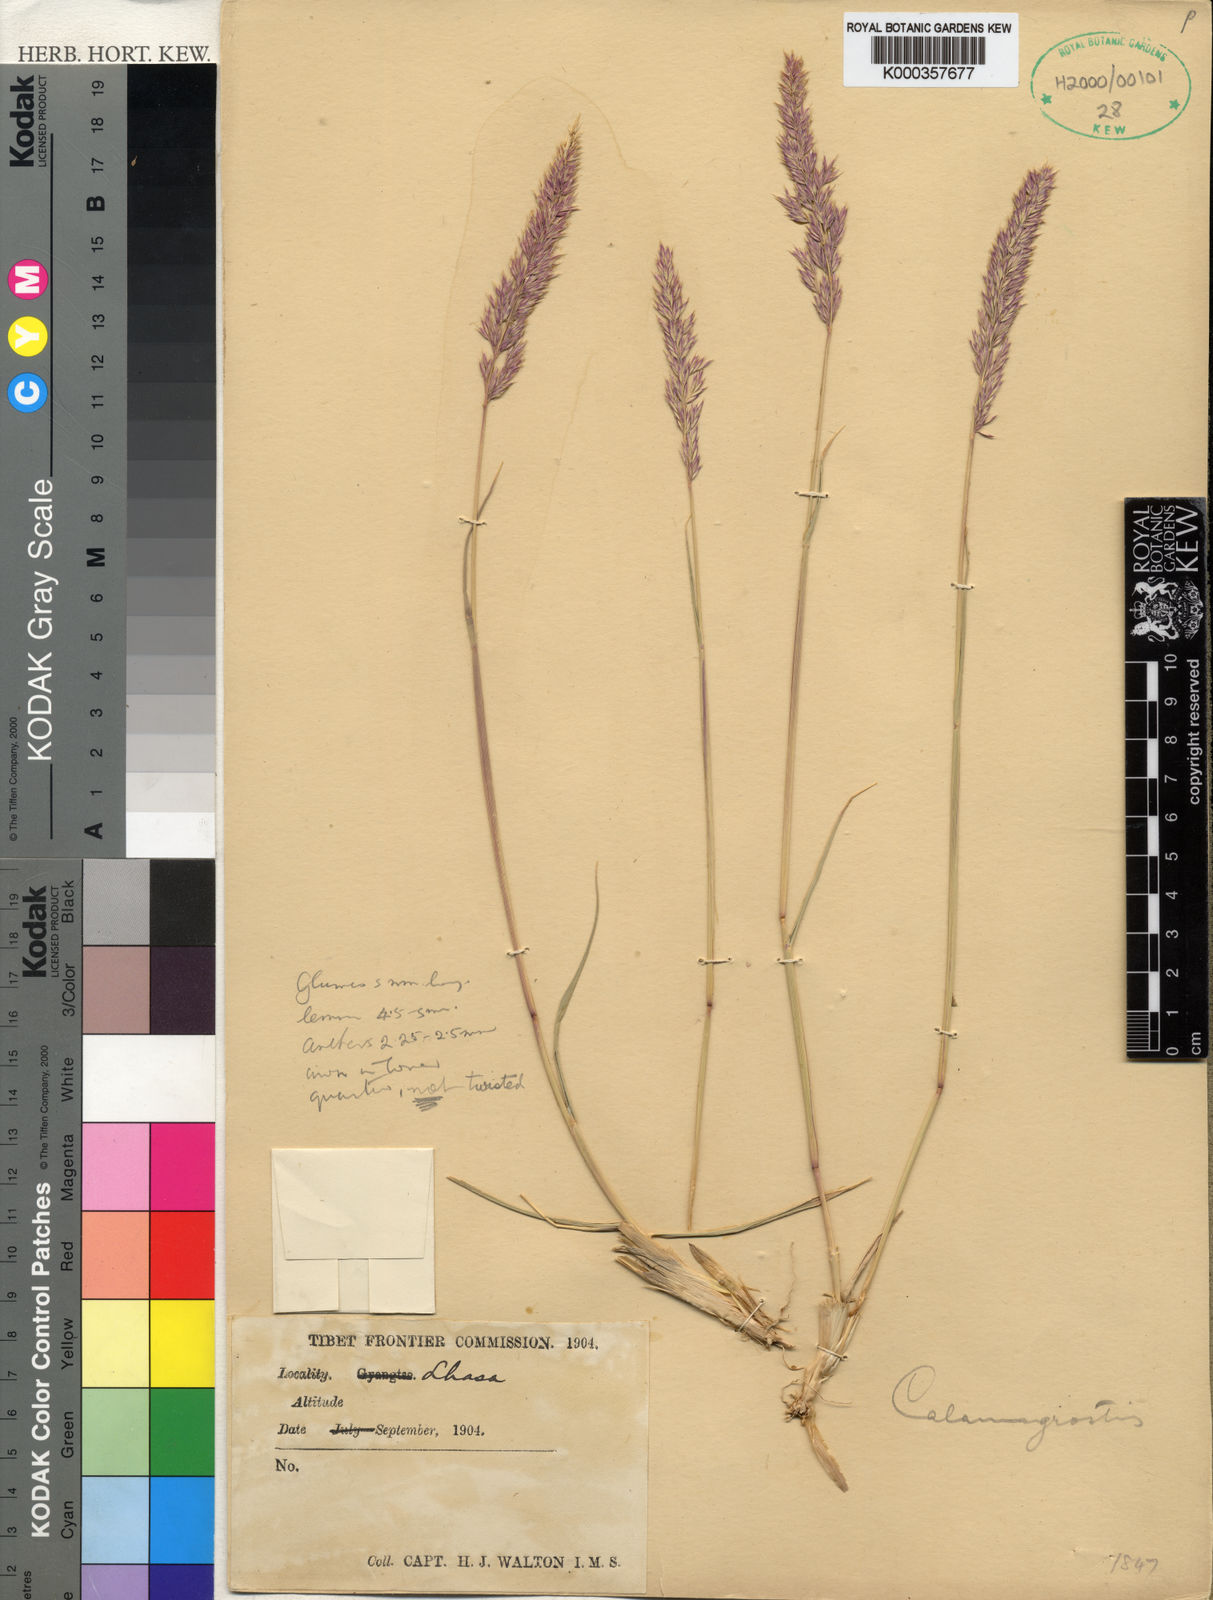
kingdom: Plantae
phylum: Tracheophyta
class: Liliopsida
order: Poales
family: Poaceae
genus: Calamagrostis
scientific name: Calamagrostis borii
